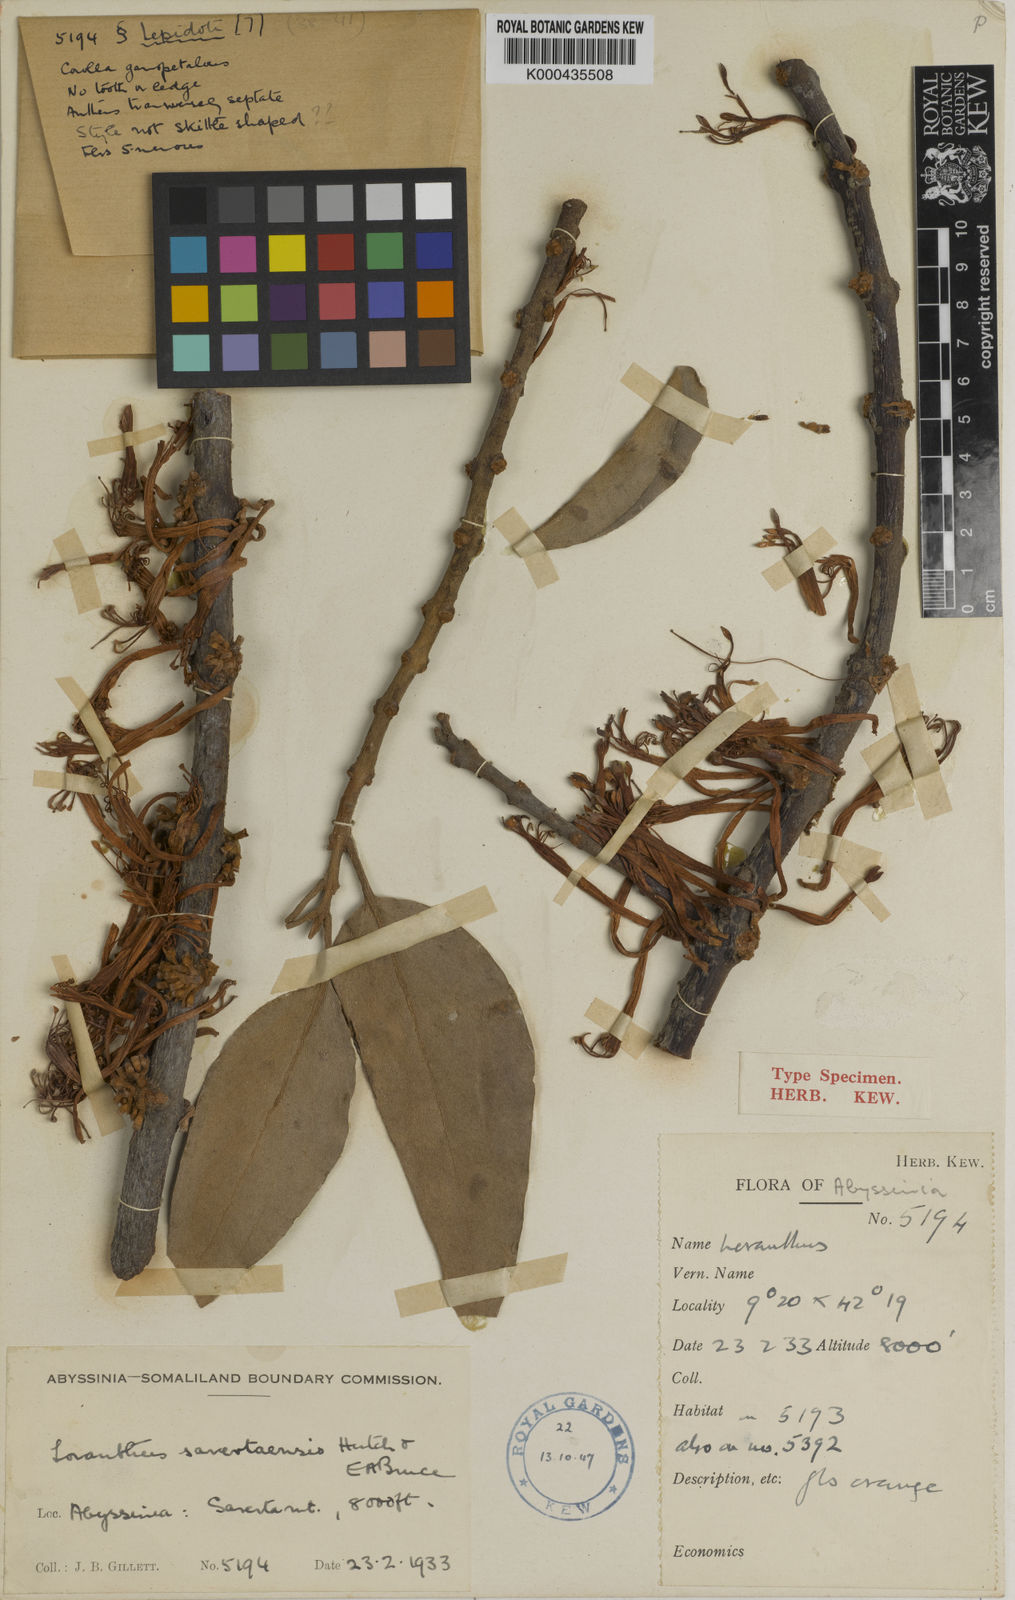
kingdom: Plantae
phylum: Tracheophyta
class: Magnoliopsida
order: Santalales
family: Loranthaceae
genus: Phragmanthera
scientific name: Phragmanthera sarertaensis
